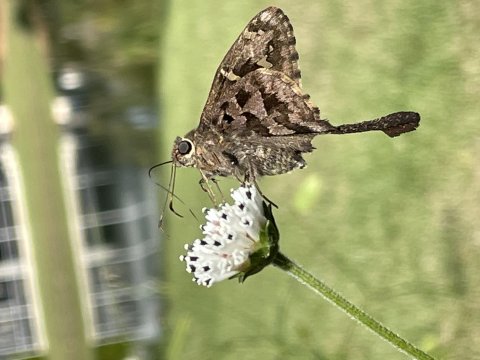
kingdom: Animalia
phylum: Arthropoda
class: Insecta
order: Lepidoptera
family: Hesperiidae
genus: Urbanus
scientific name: Urbanus dorantes
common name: Dorantes Longtail
